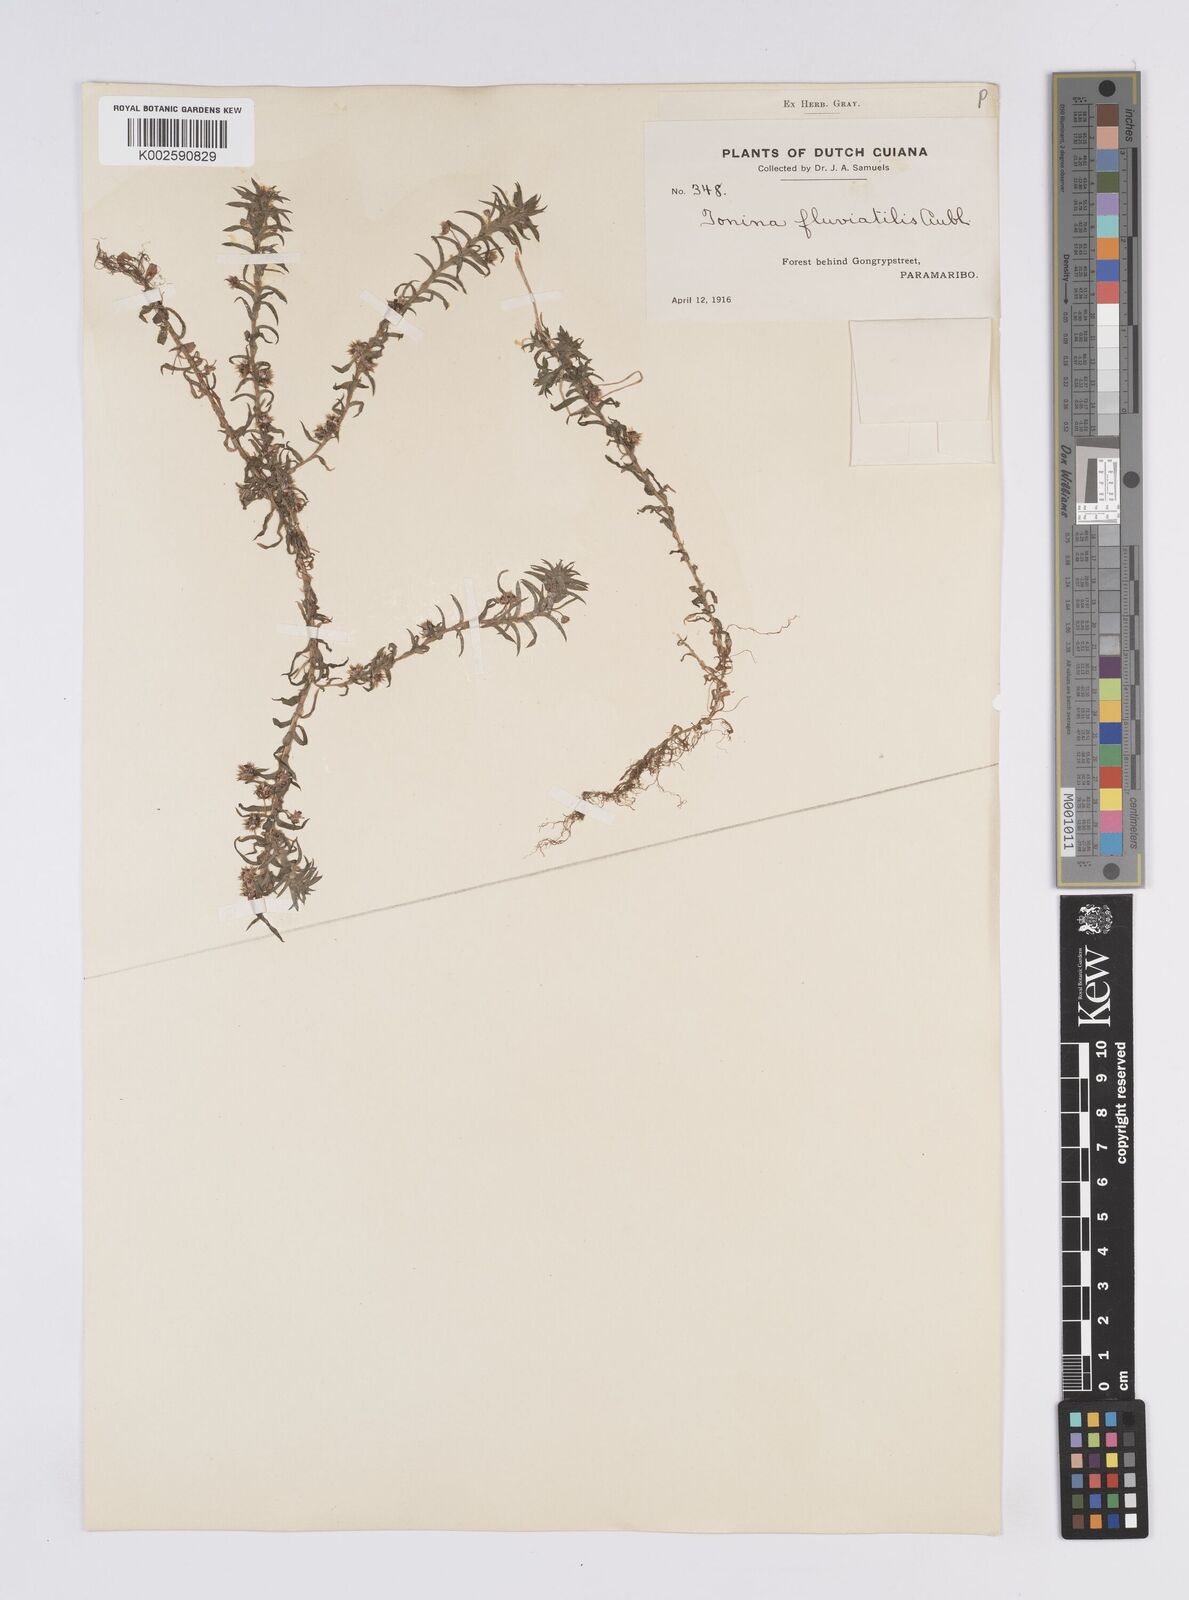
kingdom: Plantae
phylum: Tracheophyta
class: Liliopsida
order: Poales
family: Eriocaulaceae
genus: Paepalanthus
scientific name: Paepalanthus fluviatilis
